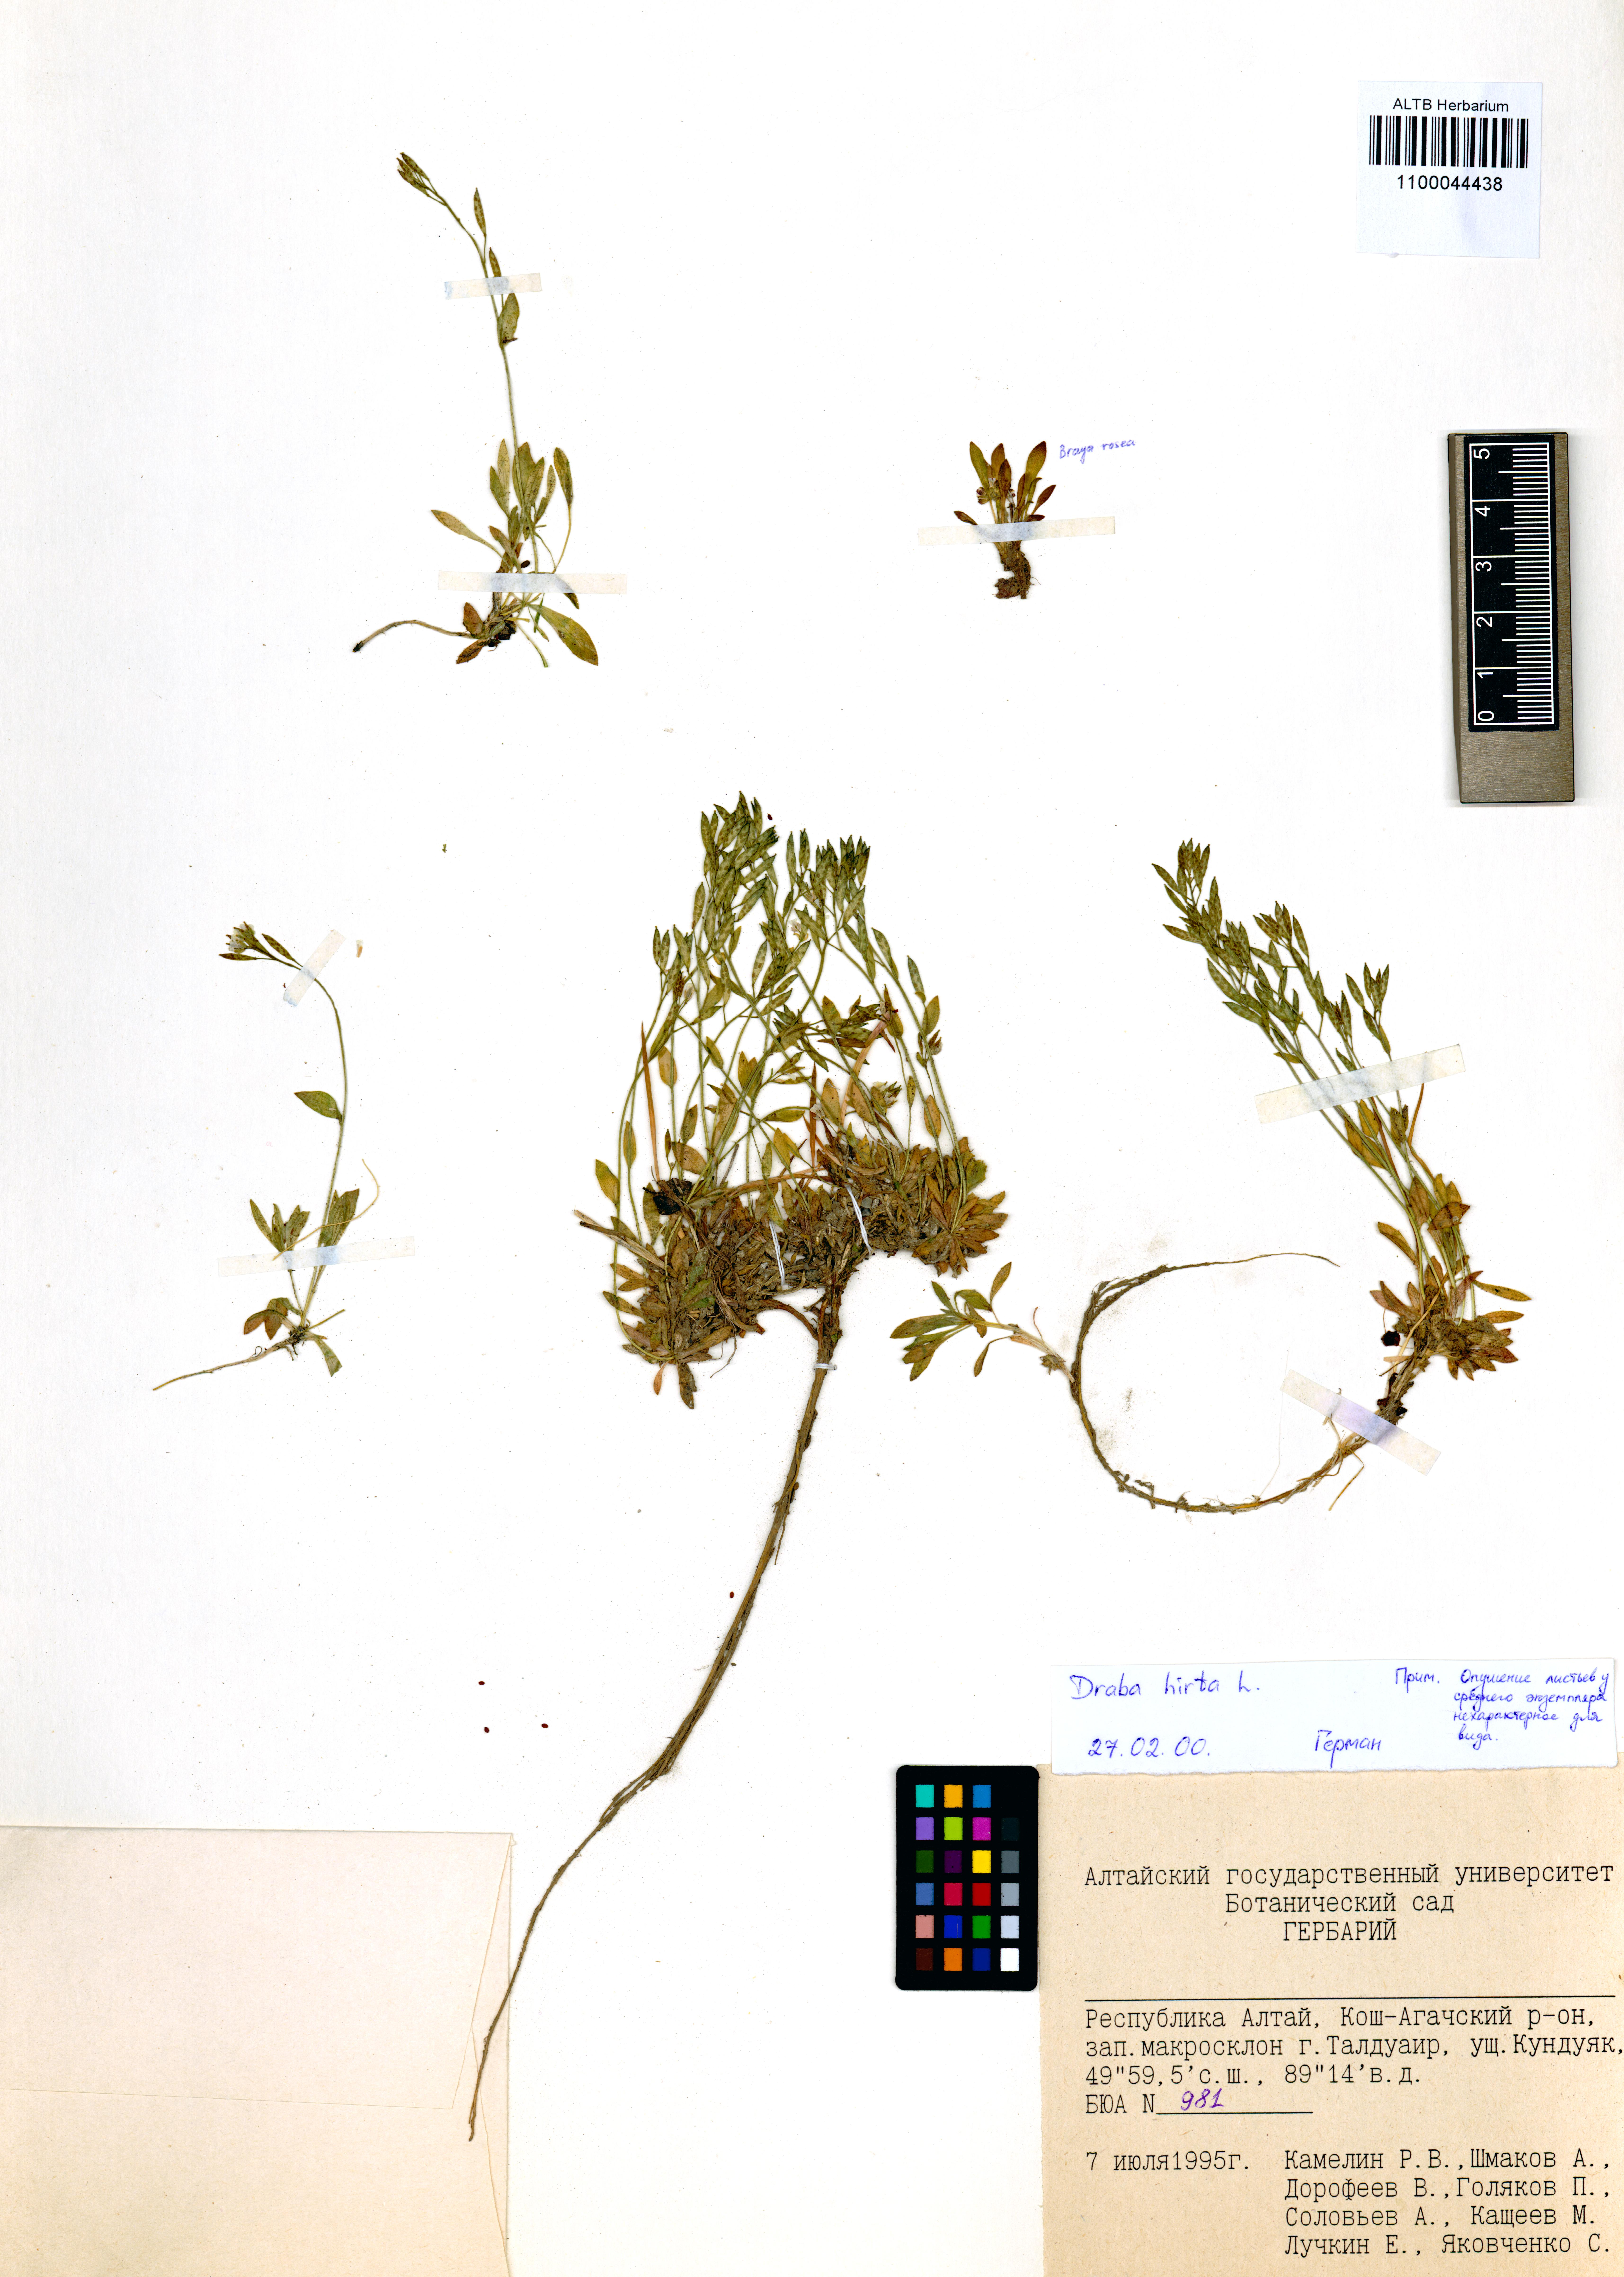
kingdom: Plantae
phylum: Tracheophyta
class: Magnoliopsida
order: Brassicales
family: Brassicaceae
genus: Draba
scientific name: Draba glabella
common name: Glaucous draba
